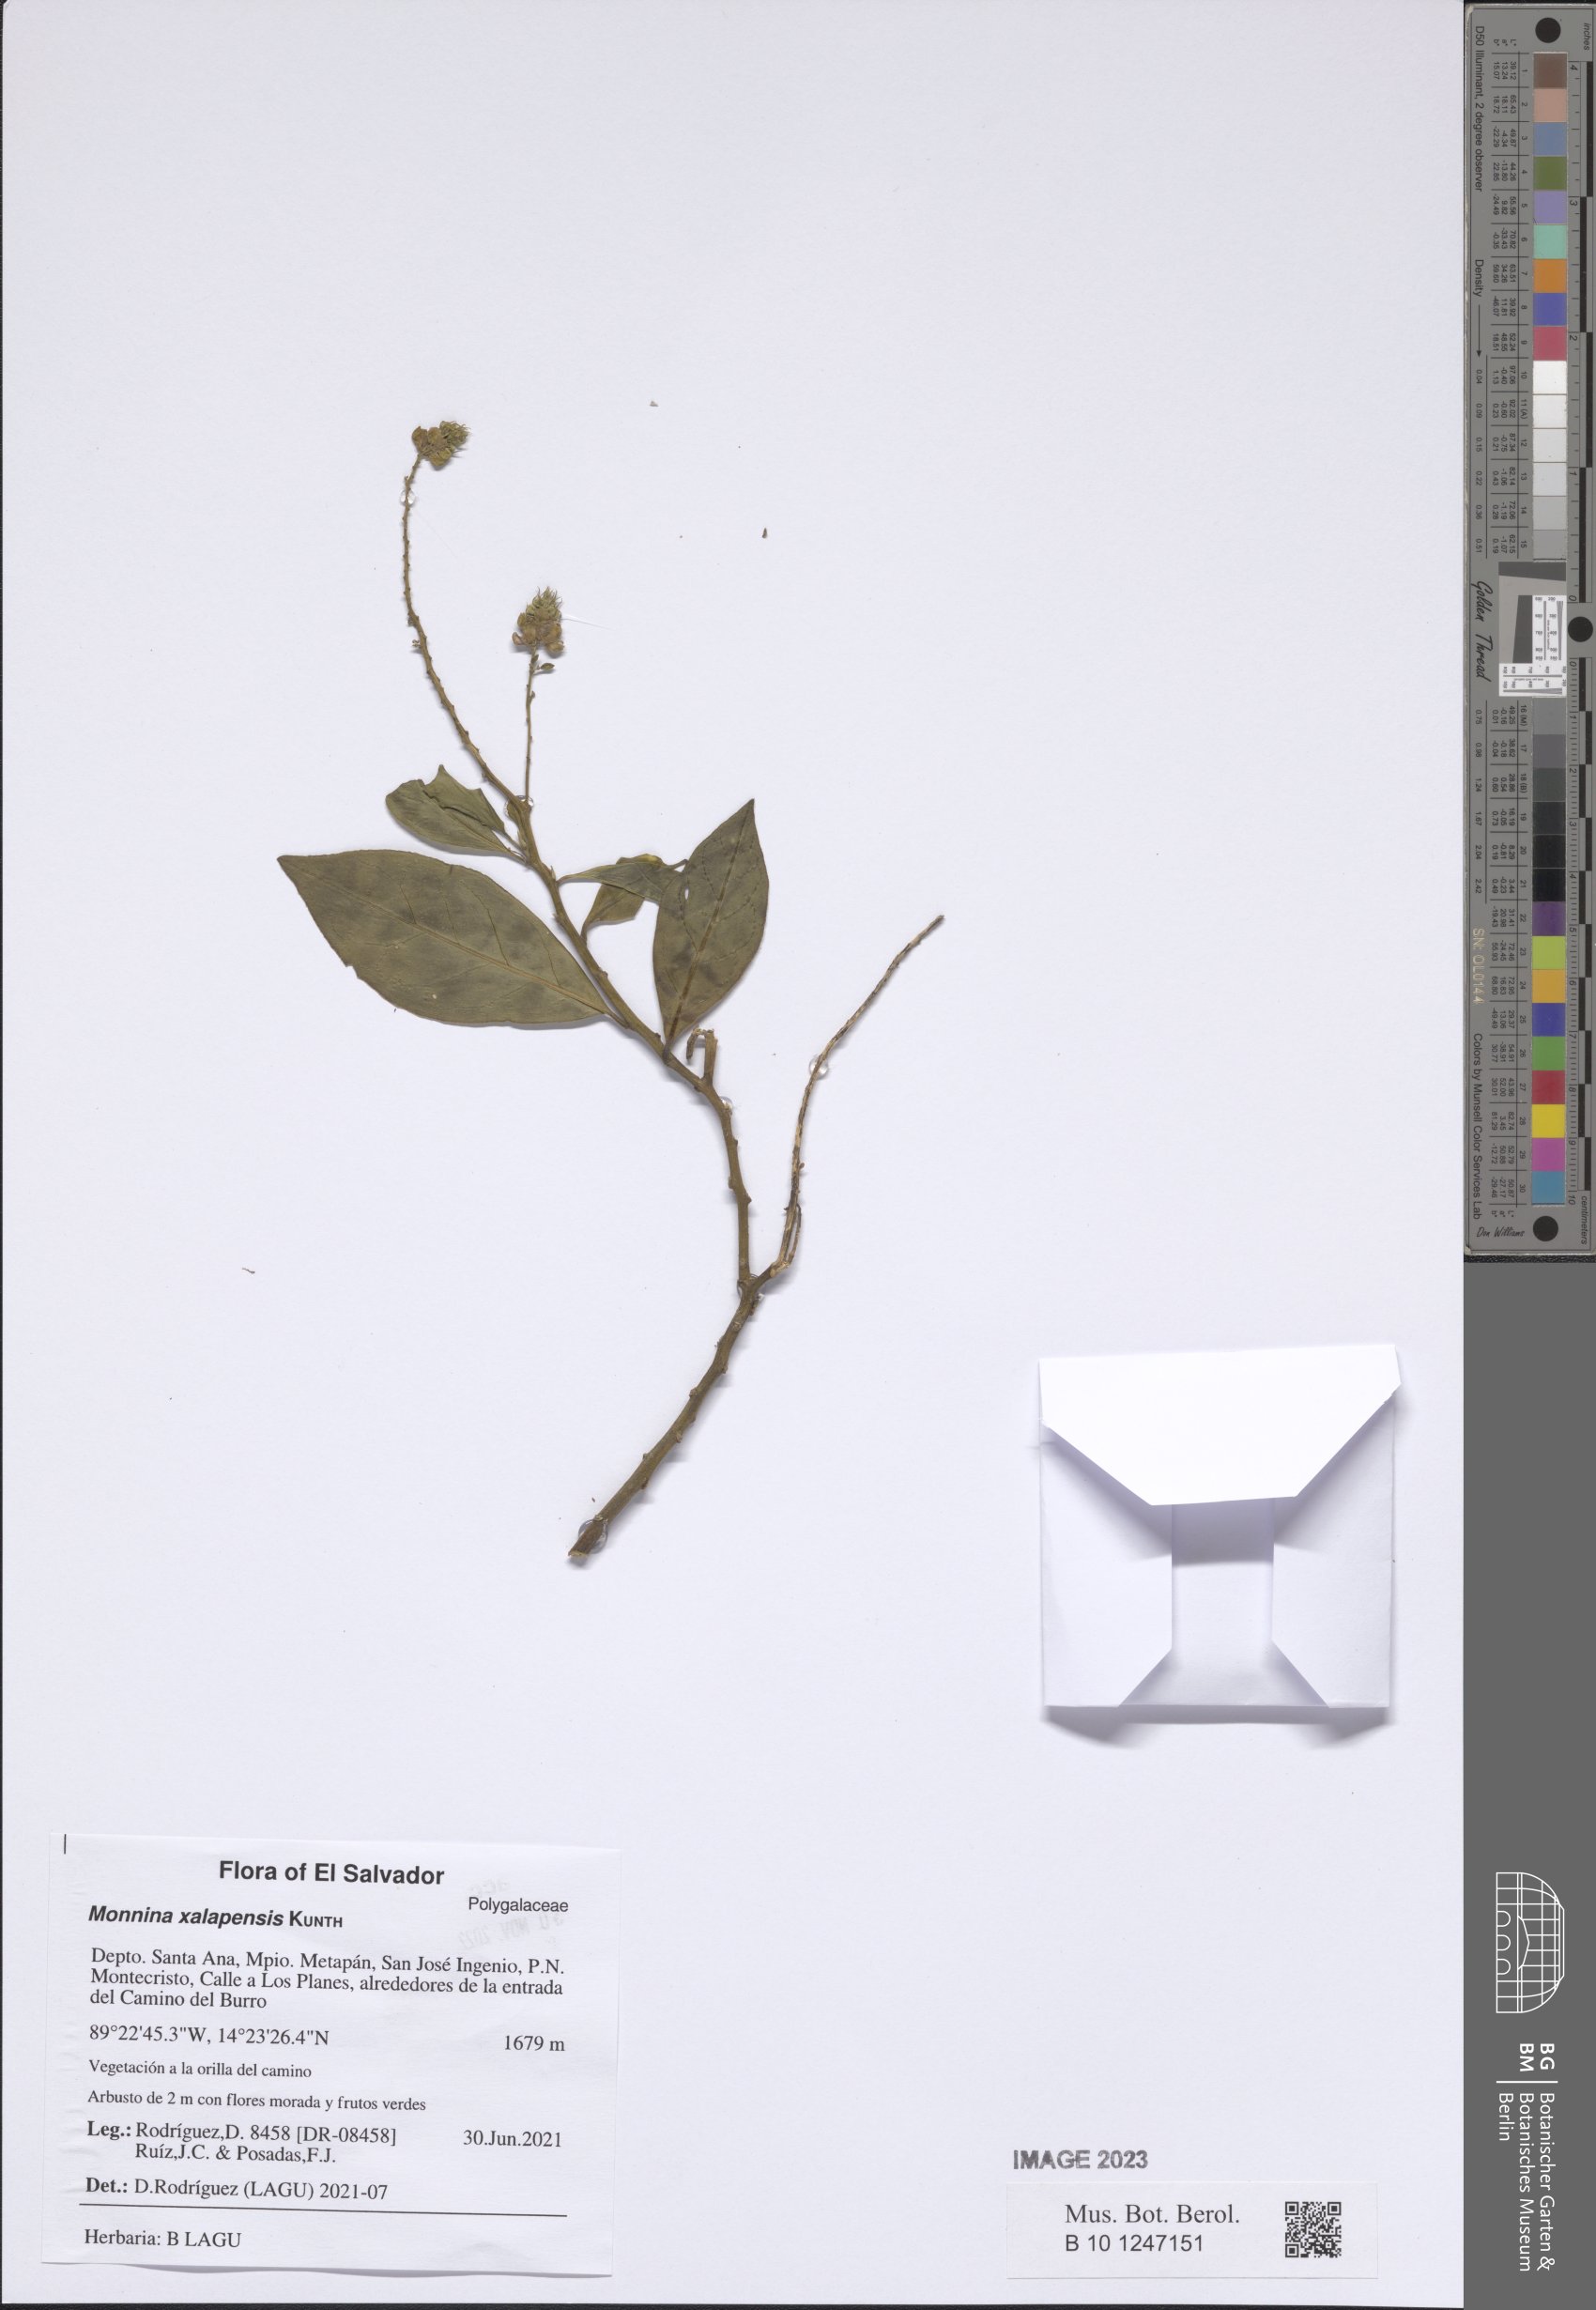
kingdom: Plantae
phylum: Tracheophyta
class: Magnoliopsida
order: Fabales
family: Polygalaceae
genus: Monnina
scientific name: Monnina xalapensis
